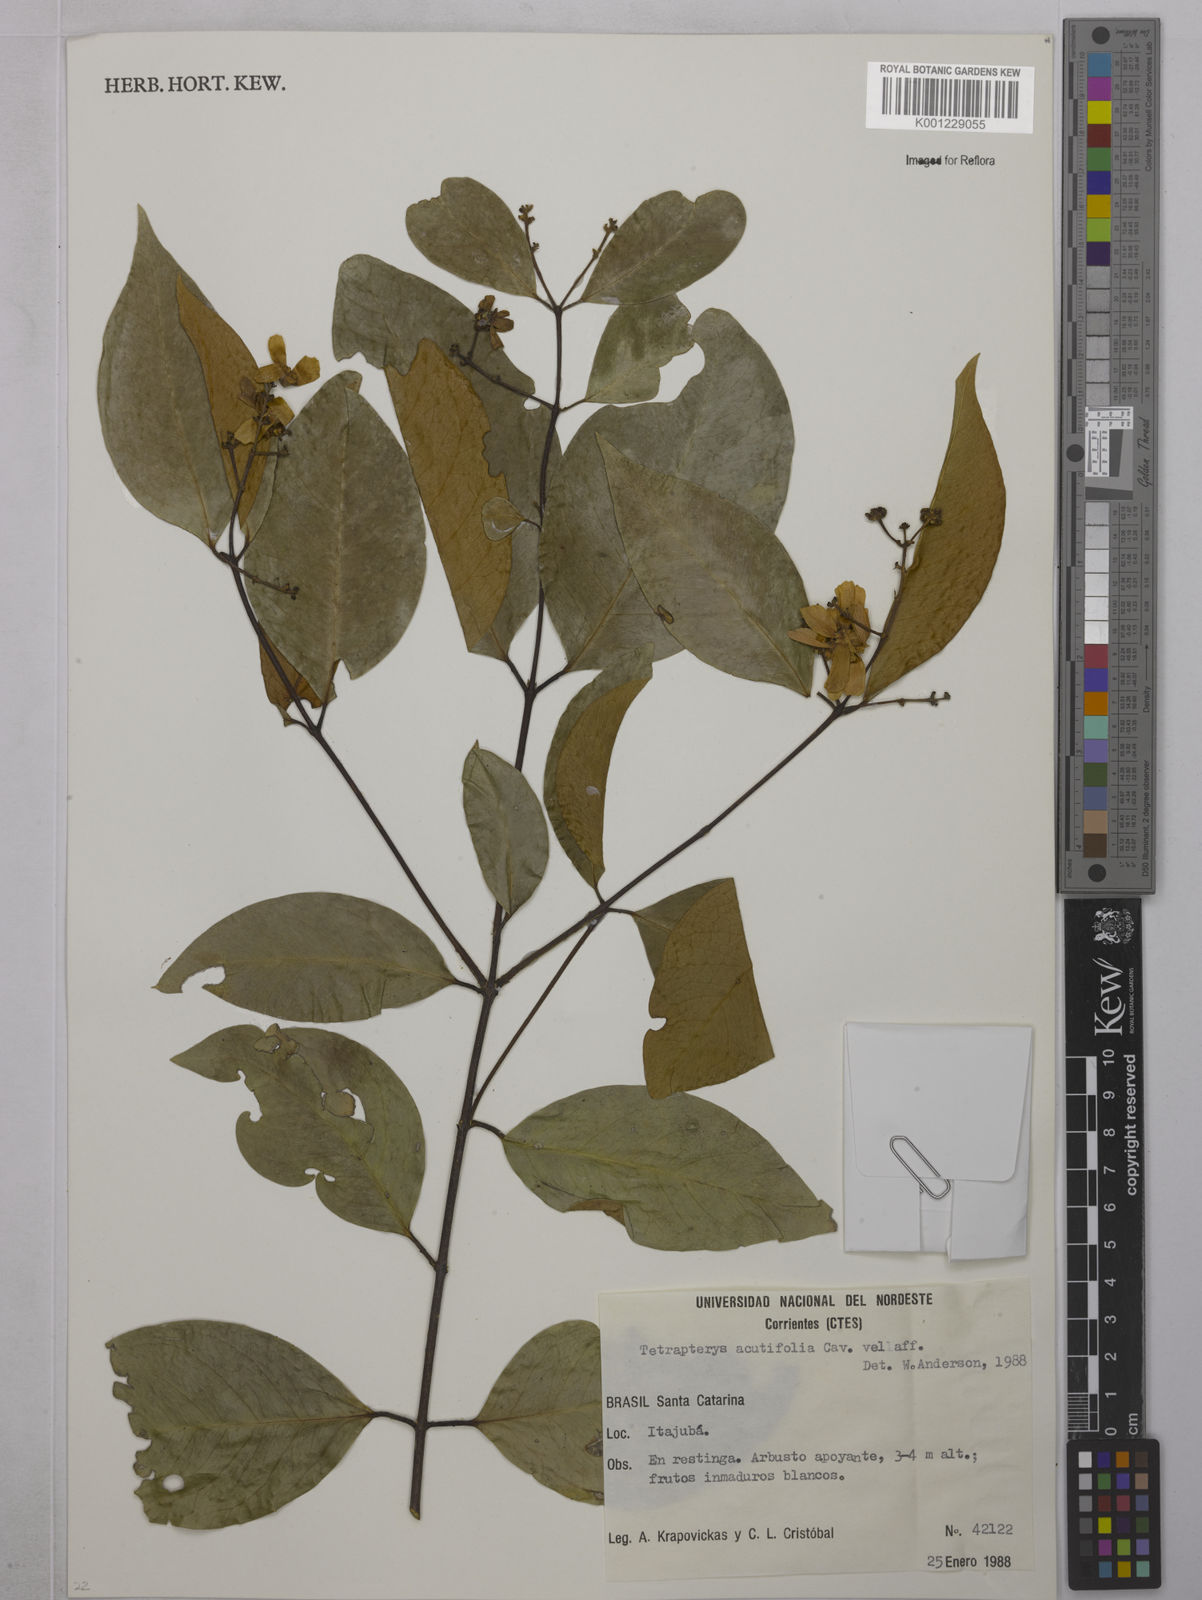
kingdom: Plantae
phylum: Tracheophyta
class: Magnoliopsida
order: Malpighiales
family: Malpighiaceae
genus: Niedenzuella
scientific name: Niedenzuella acutifolia
